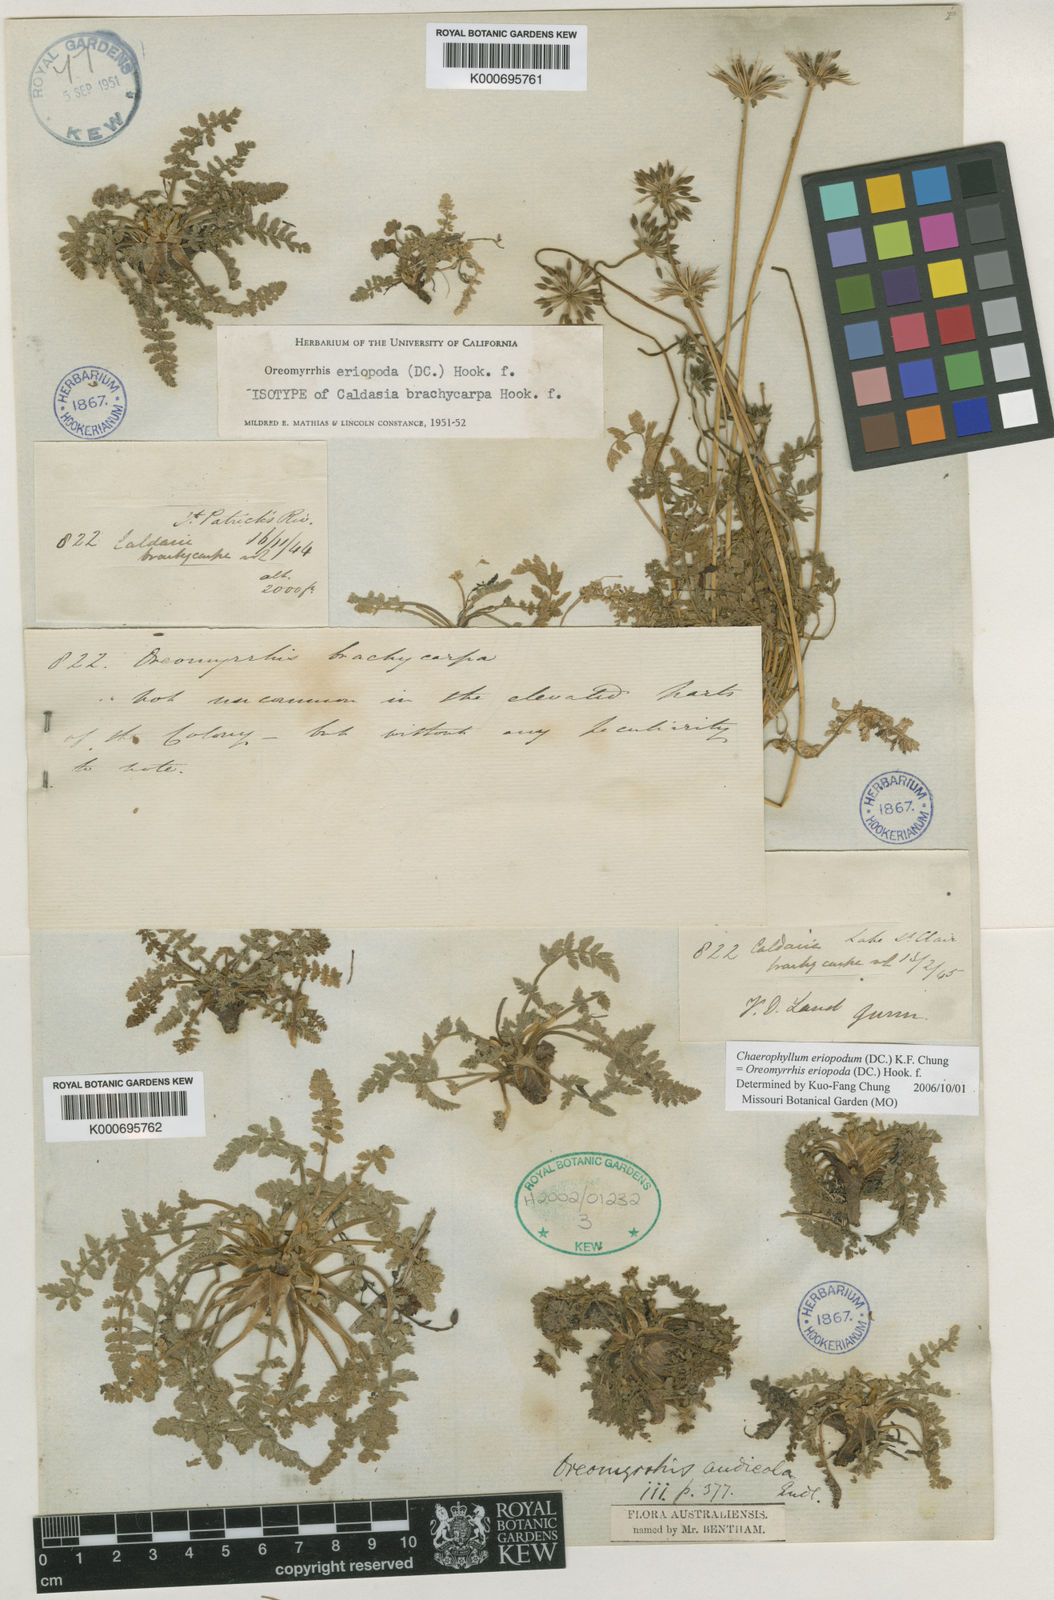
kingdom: Plantae
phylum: Tracheophyta
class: Magnoliopsida
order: Apiales
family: Apiaceae
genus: Chaerophyllum
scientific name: Chaerophyllum eriopodum
